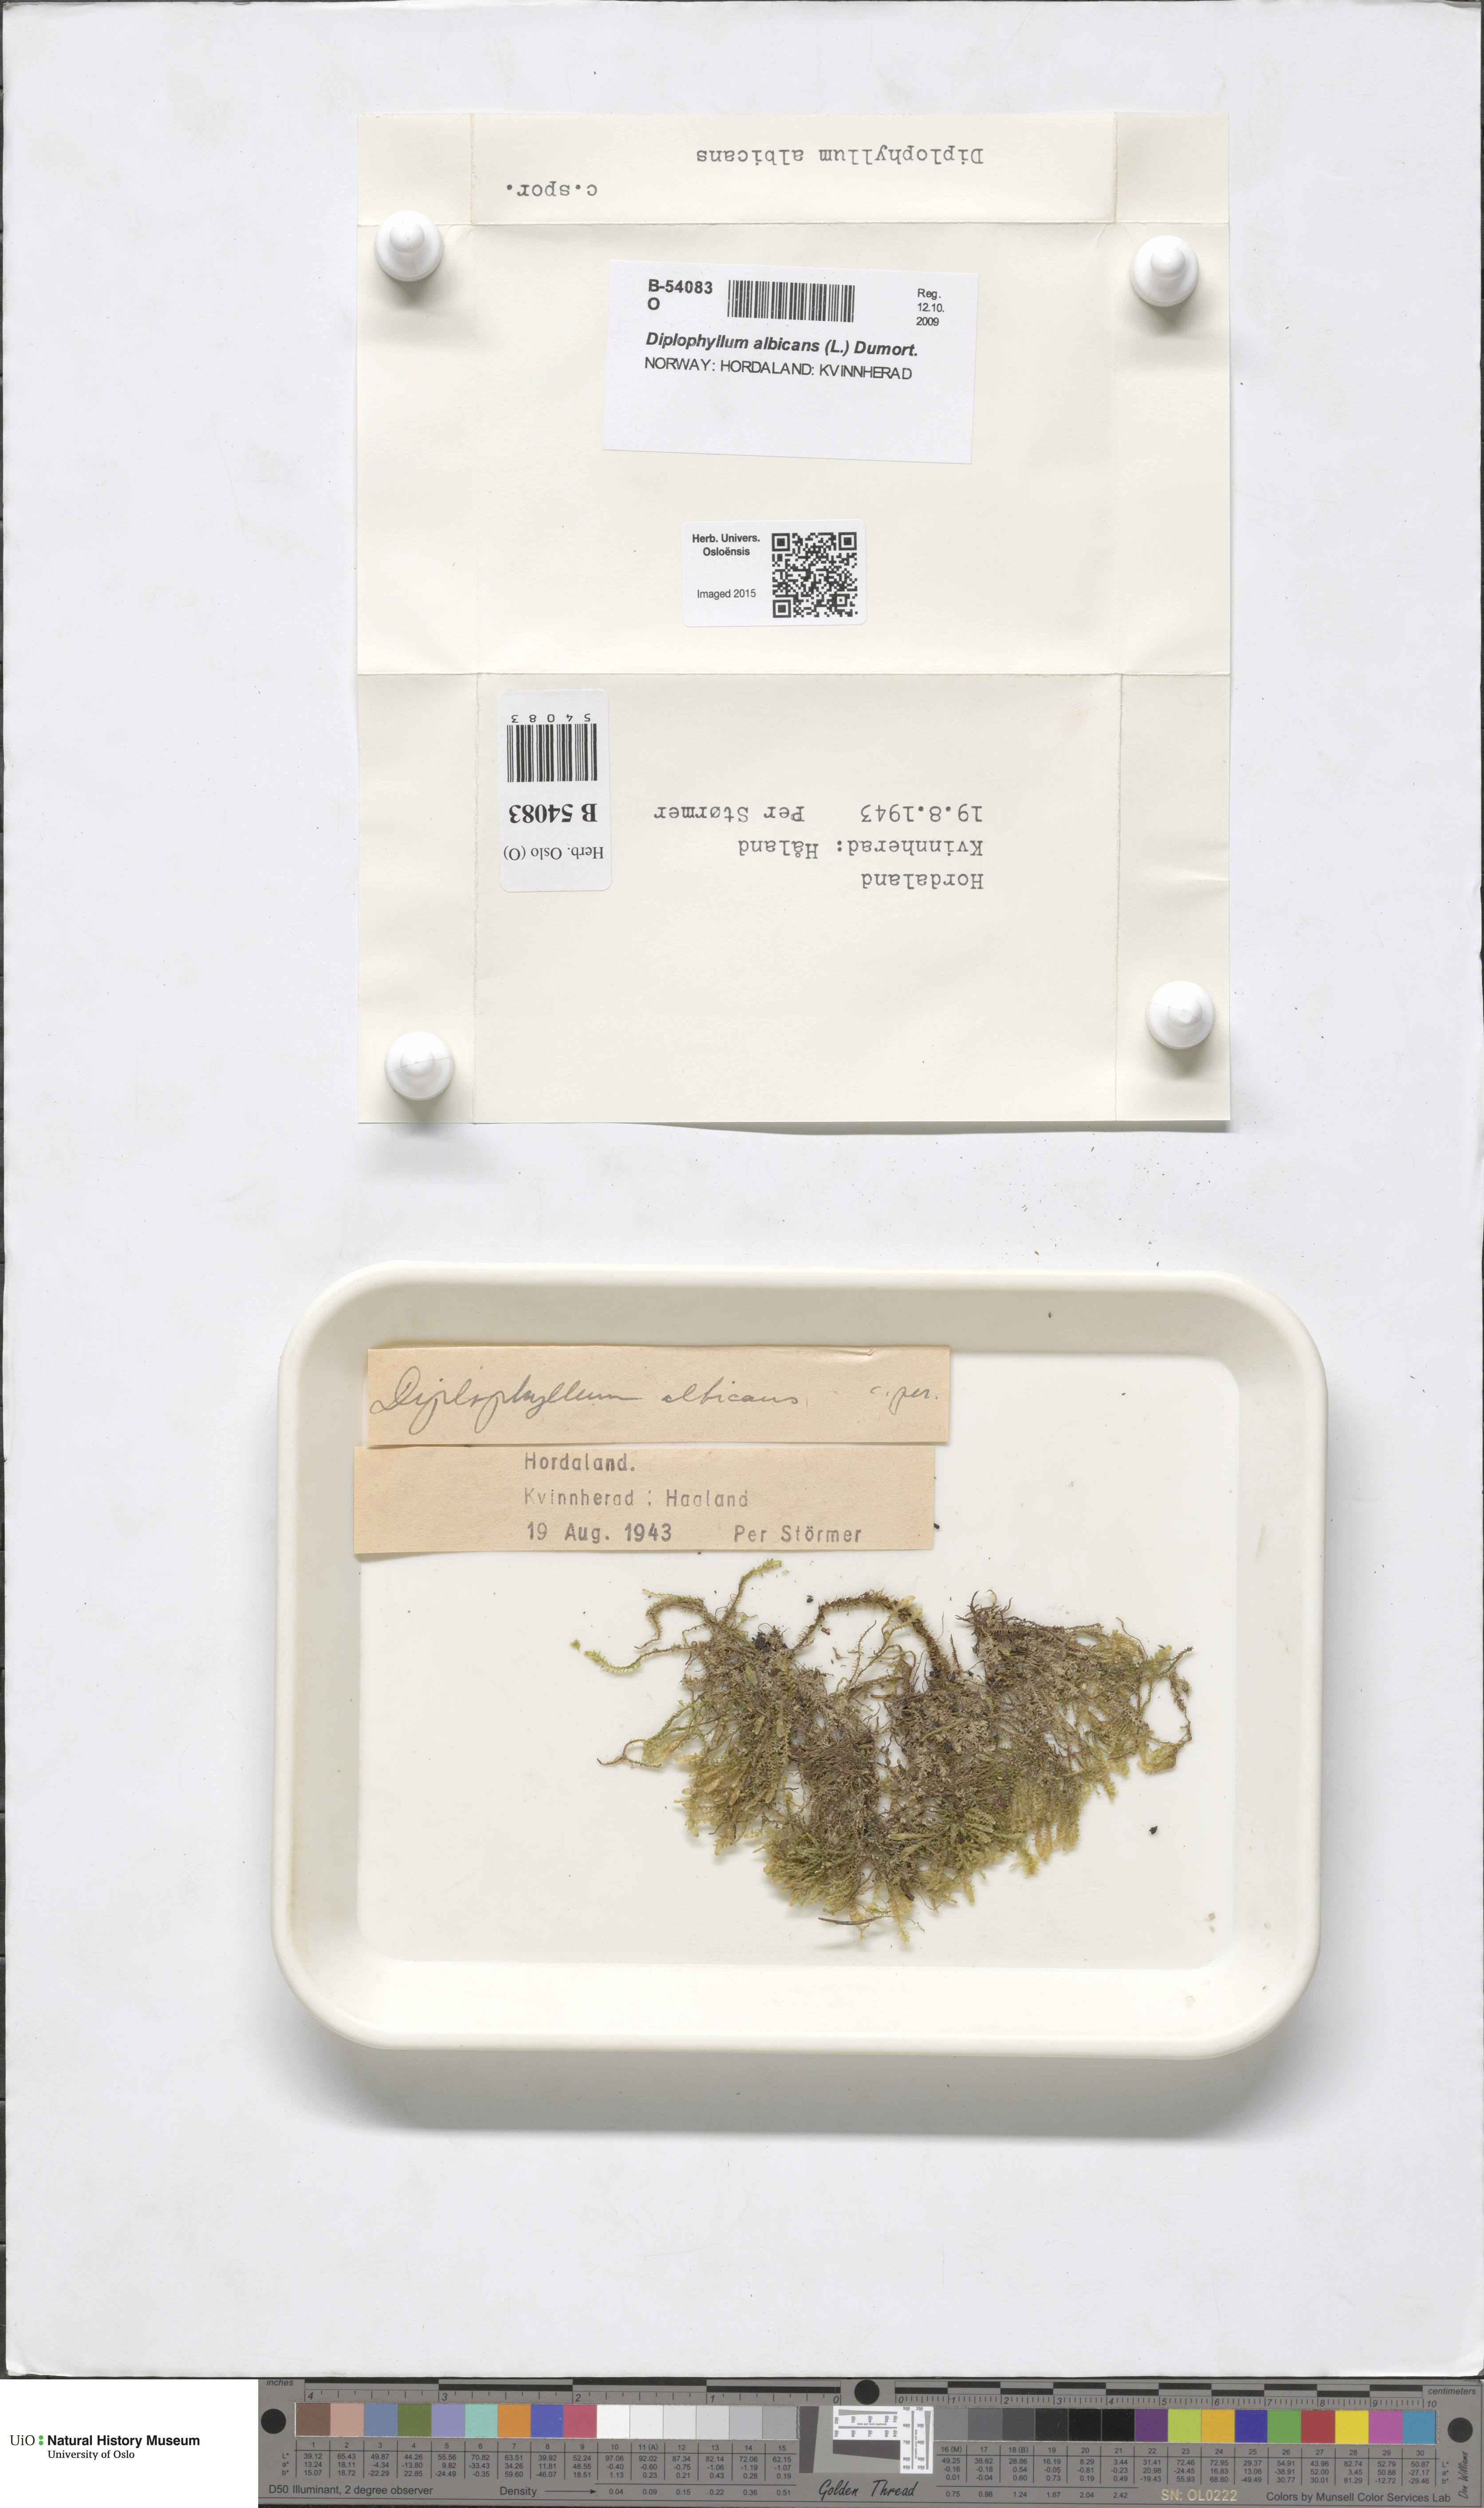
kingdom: Plantae
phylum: Marchantiophyta
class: Jungermanniopsida
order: Jungermanniales
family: Scapaniaceae
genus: Diplophyllum
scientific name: Diplophyllum albicans
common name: White earwort
